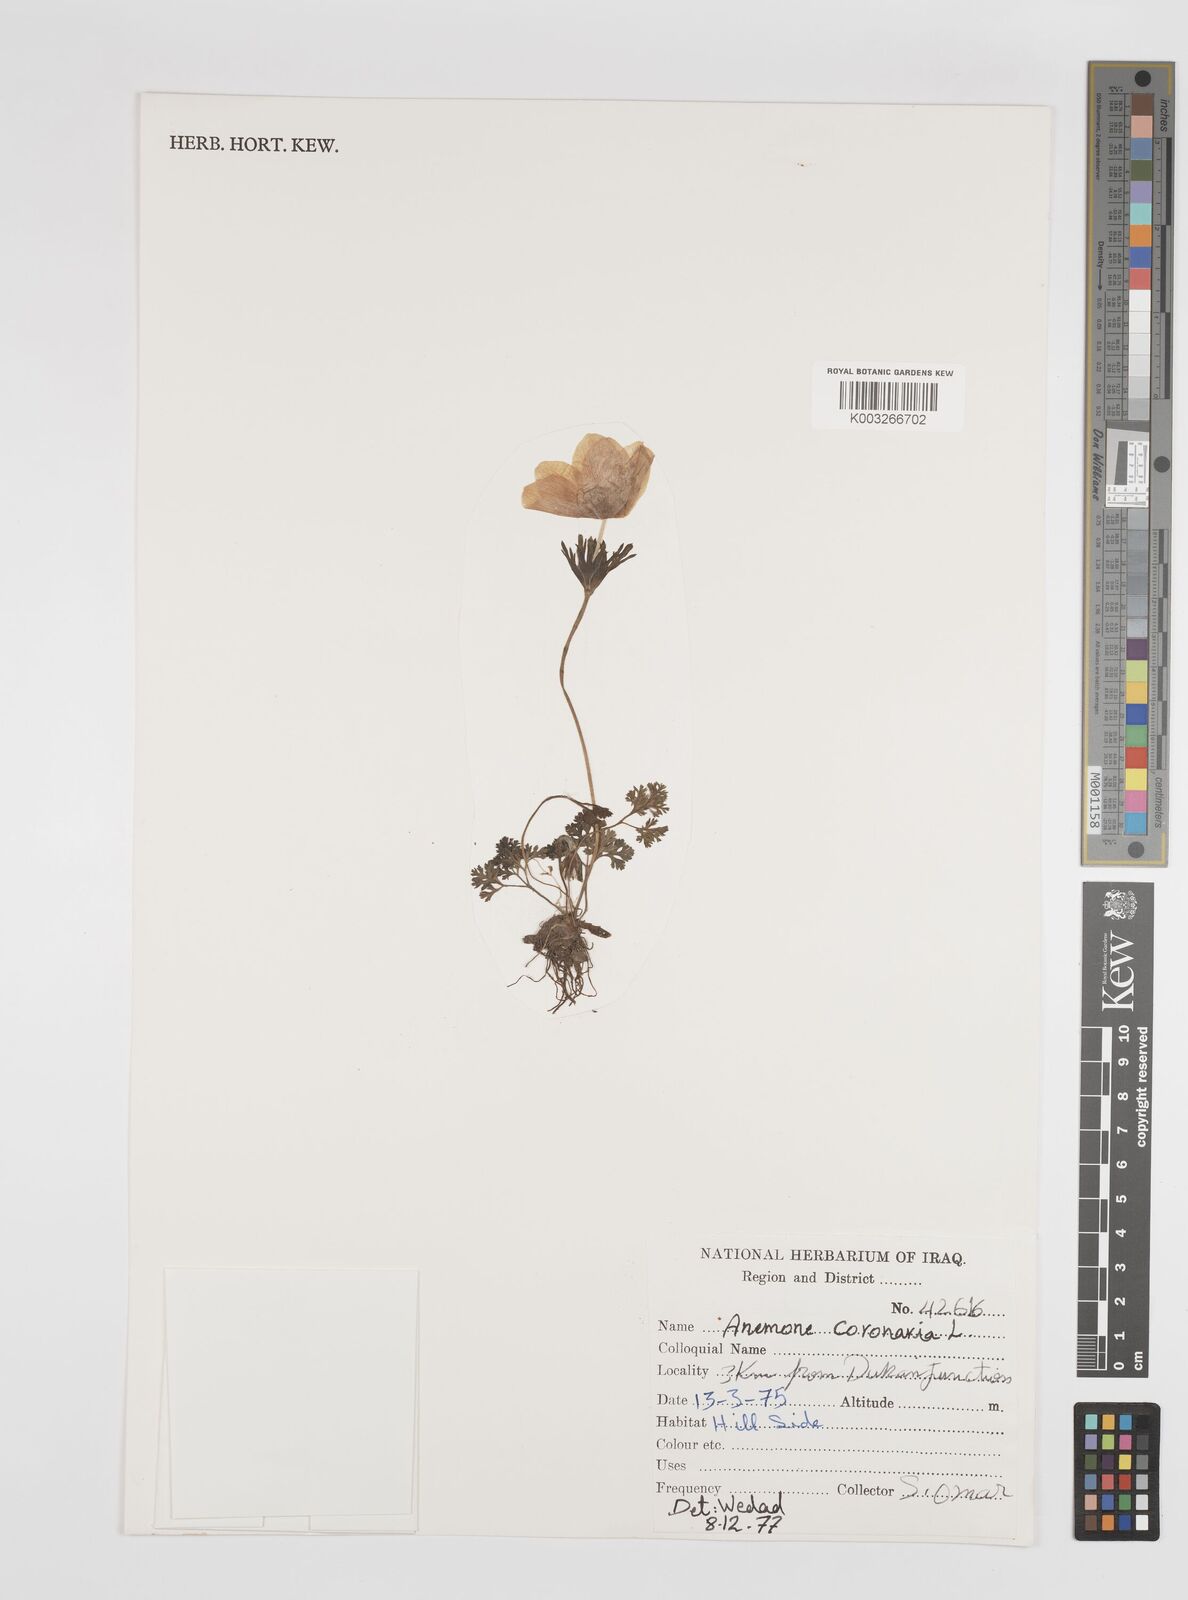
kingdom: Plantae
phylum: Tracheophyta
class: Magnoliopsida
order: Ranunculales
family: Ranunculaceae
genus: Anemone
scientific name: Anemone coronaria
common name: Poppy anemone
